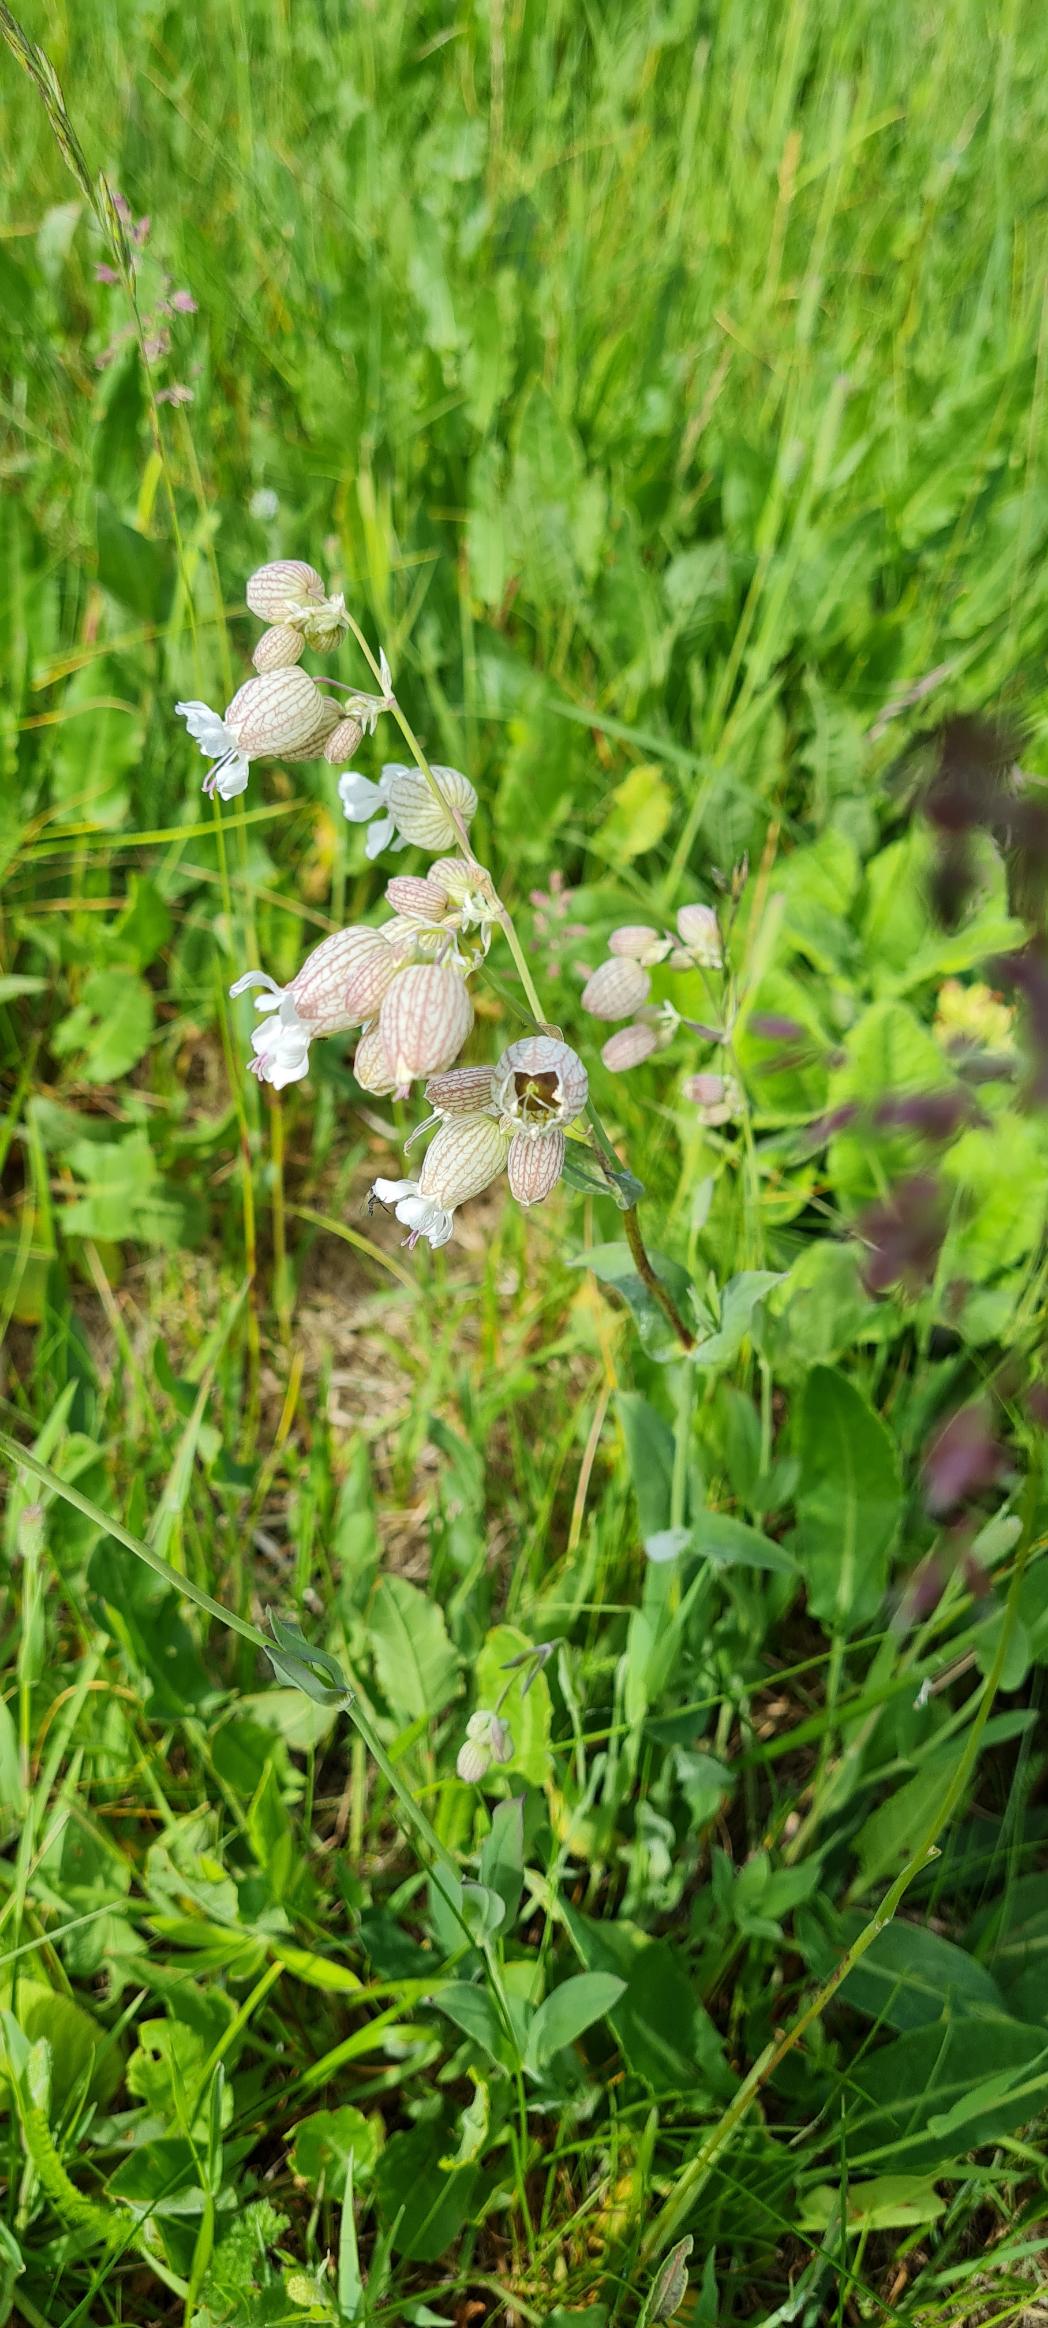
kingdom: Plantae
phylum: Tracheophyta
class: Magnoliopsida
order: Caryophyllales
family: Caryophyllaceae
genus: Silene
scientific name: Silene vulgaris
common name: Blæresmælde
